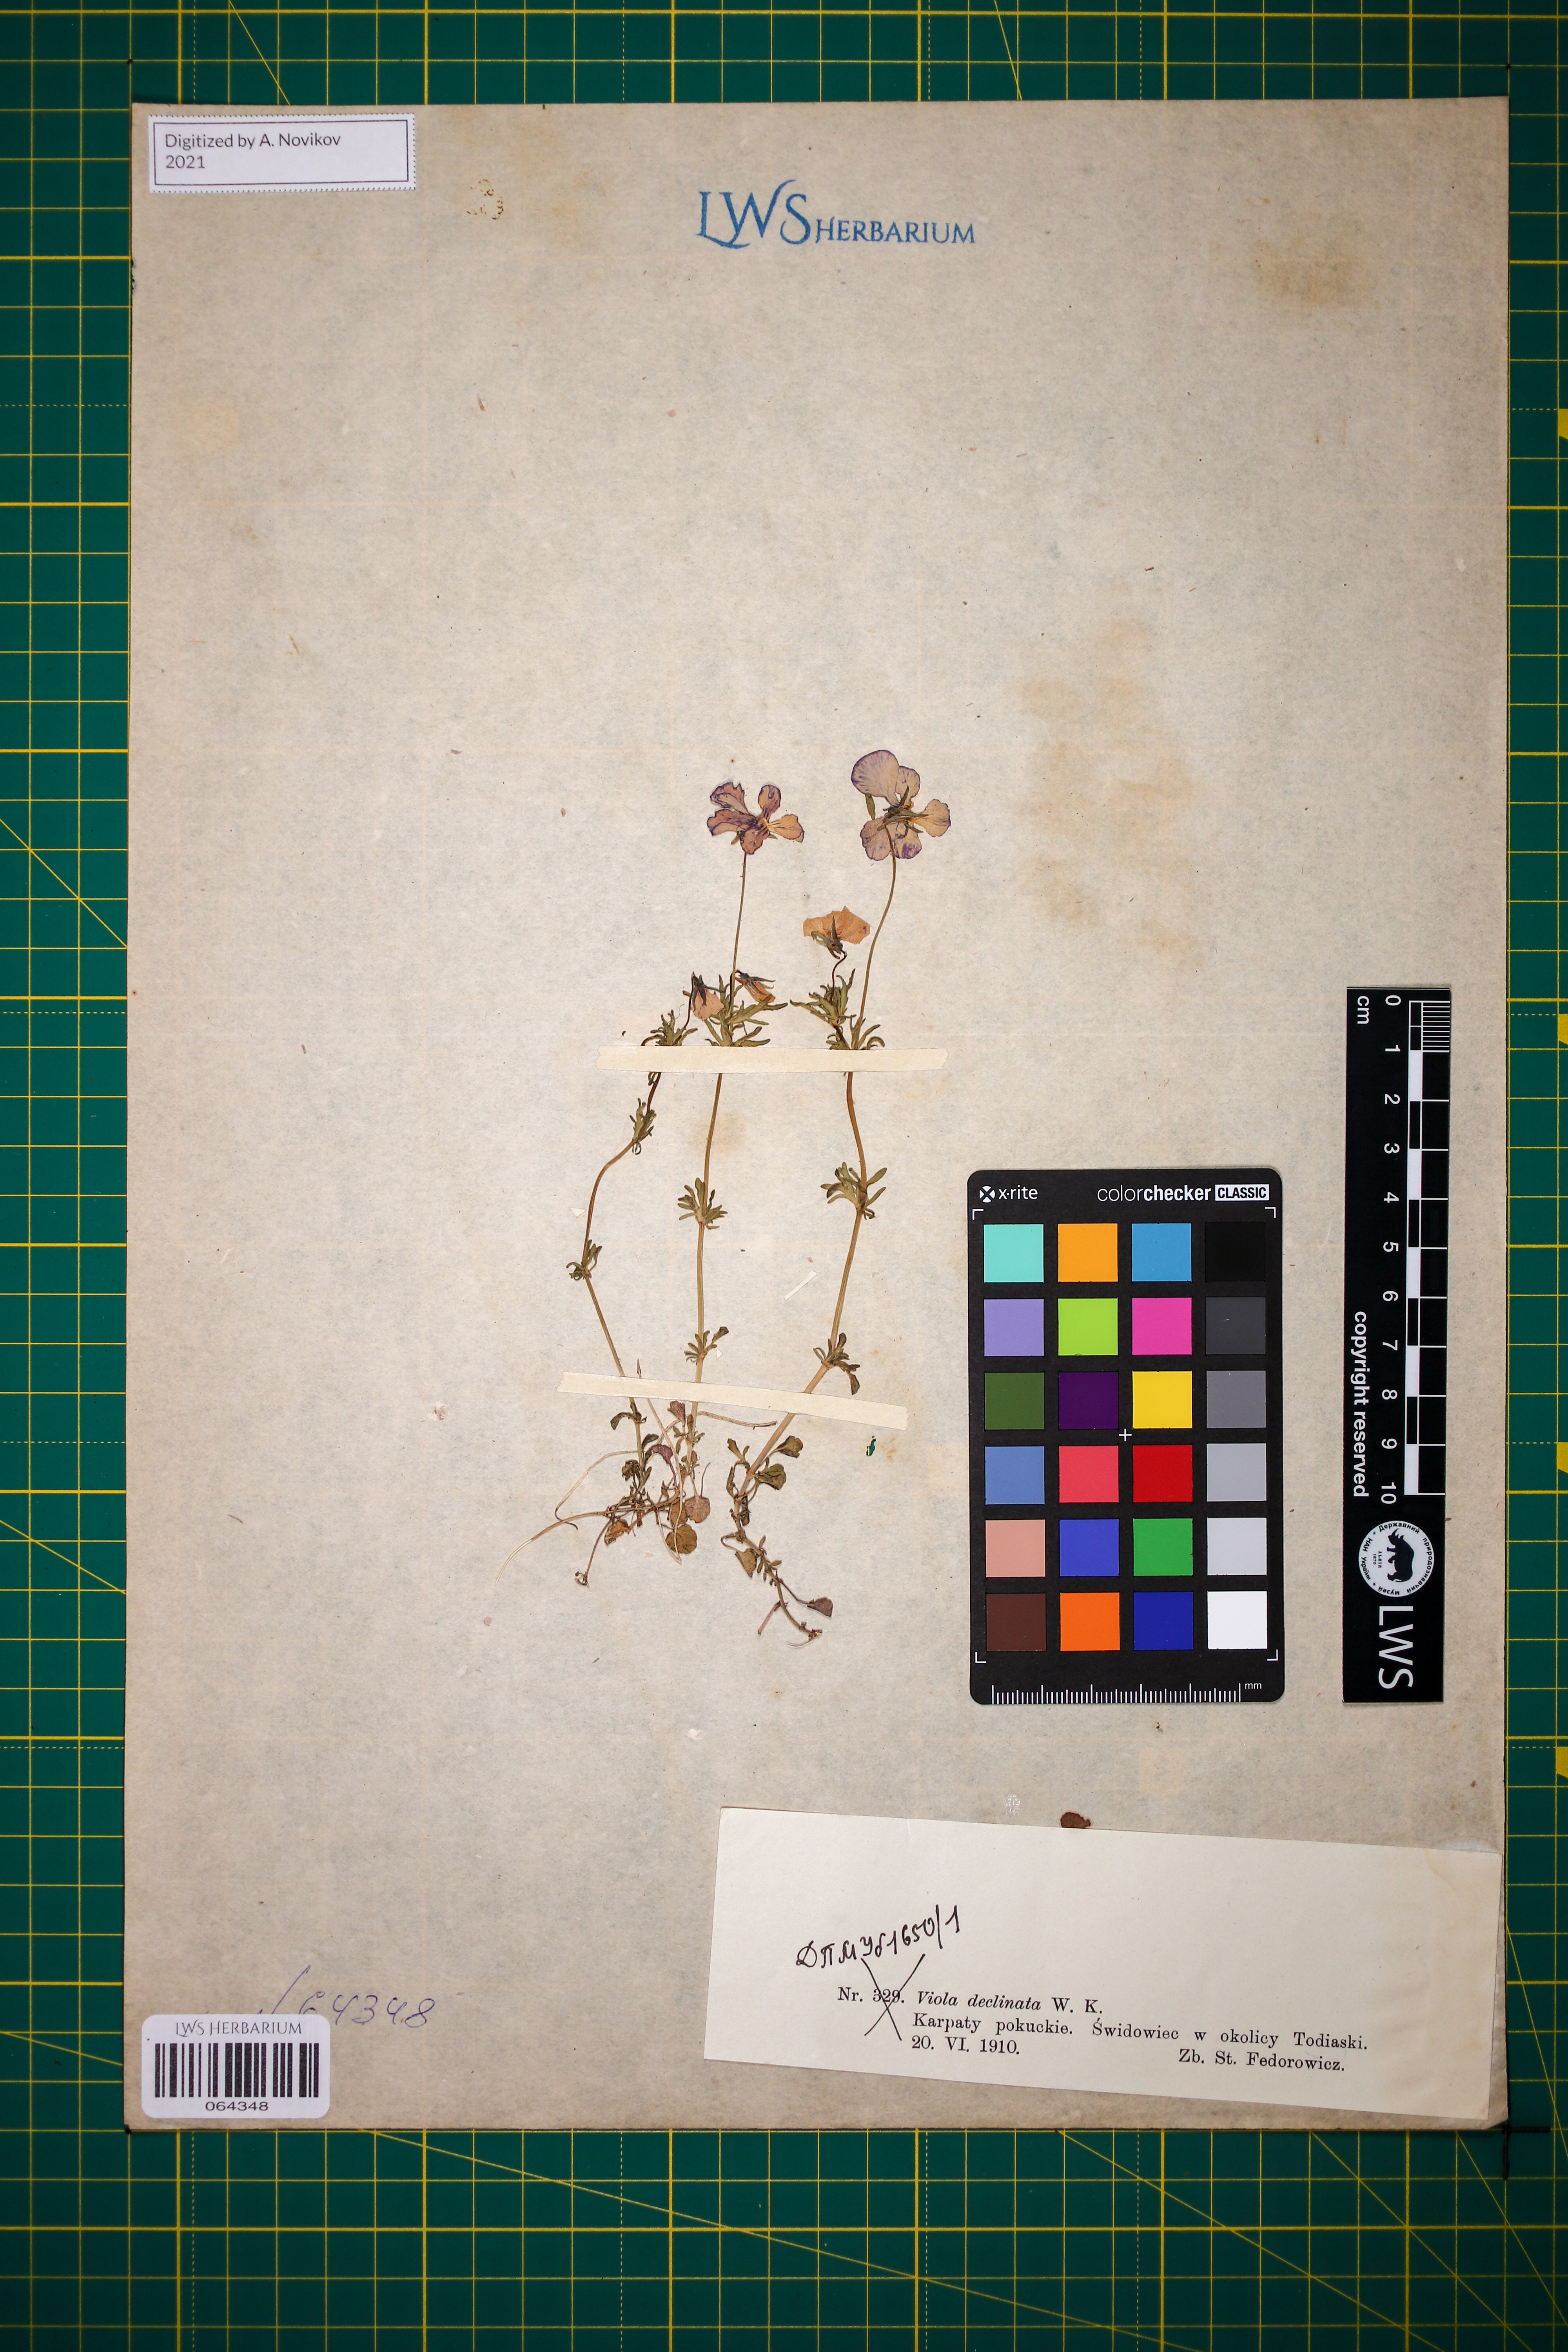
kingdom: Plantae
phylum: Tracheophyta
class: Magnoliopsida
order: Malpighiales
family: Violaceae
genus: Viola
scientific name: Viola declinata
